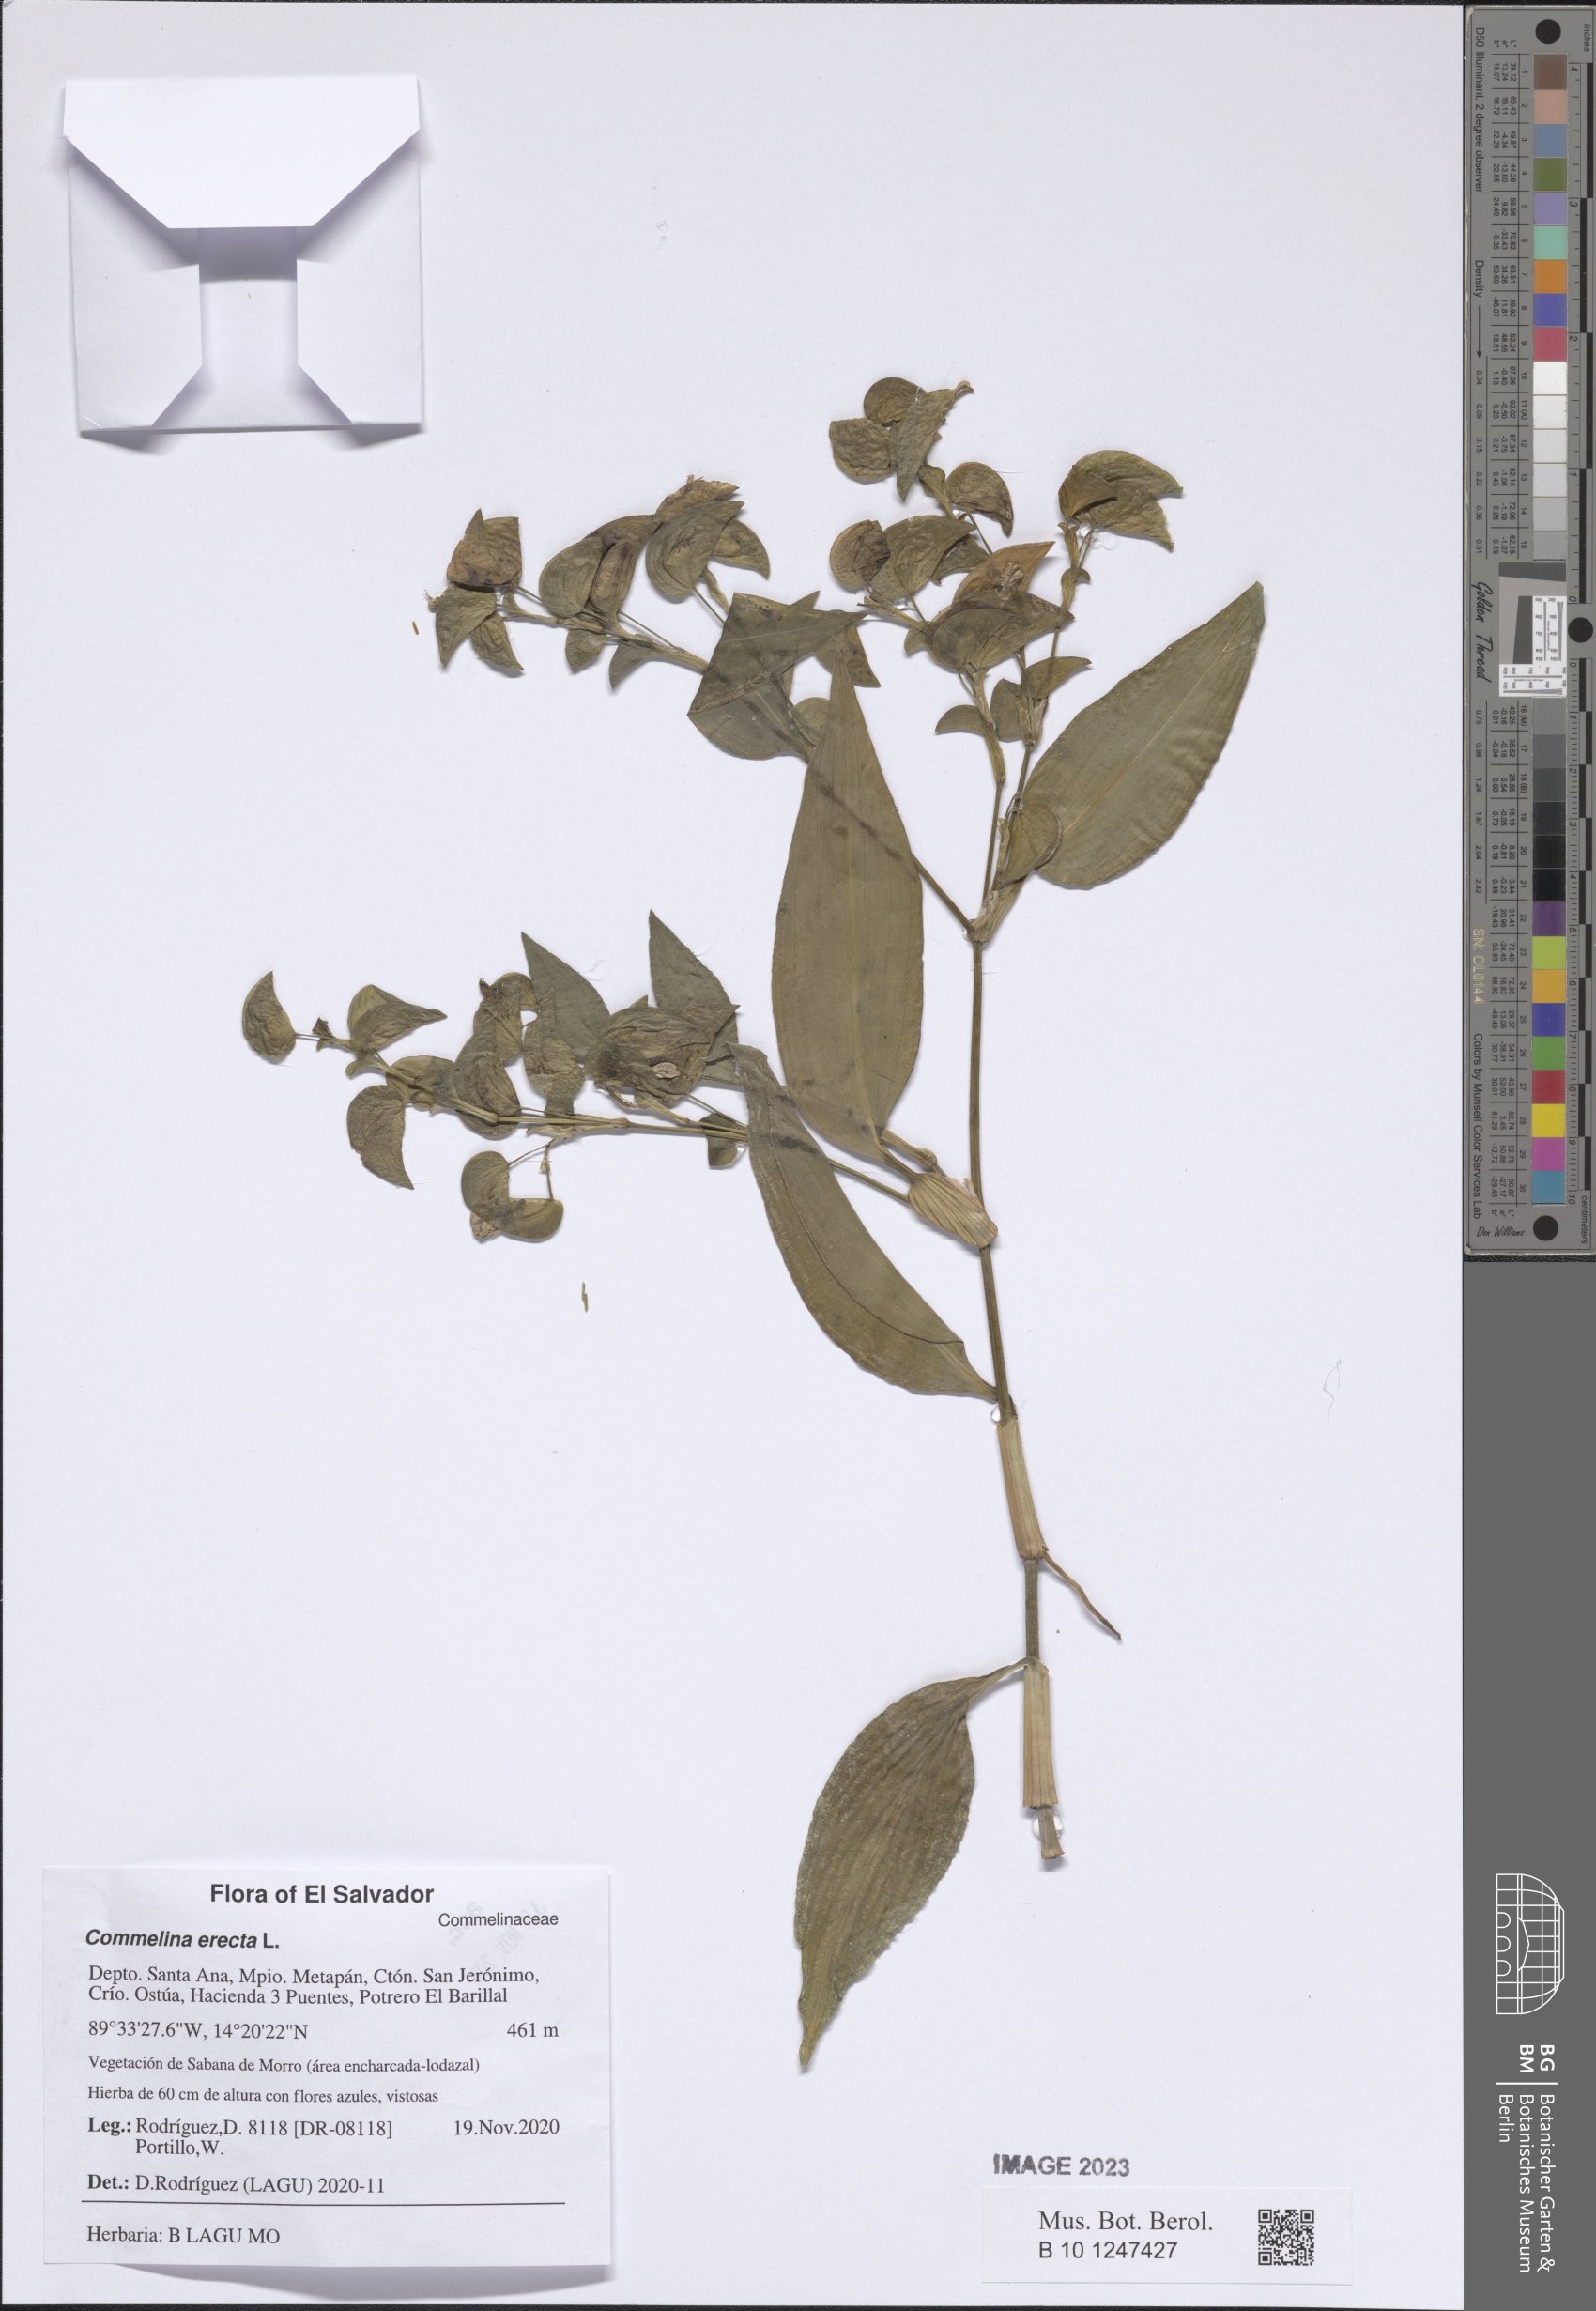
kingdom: Plantae
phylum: Tracheophyta
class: Liliopsida
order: Commelinales
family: Commelinaceae
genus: Commelina
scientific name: Commelina erecta
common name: Blousel blommetjie
